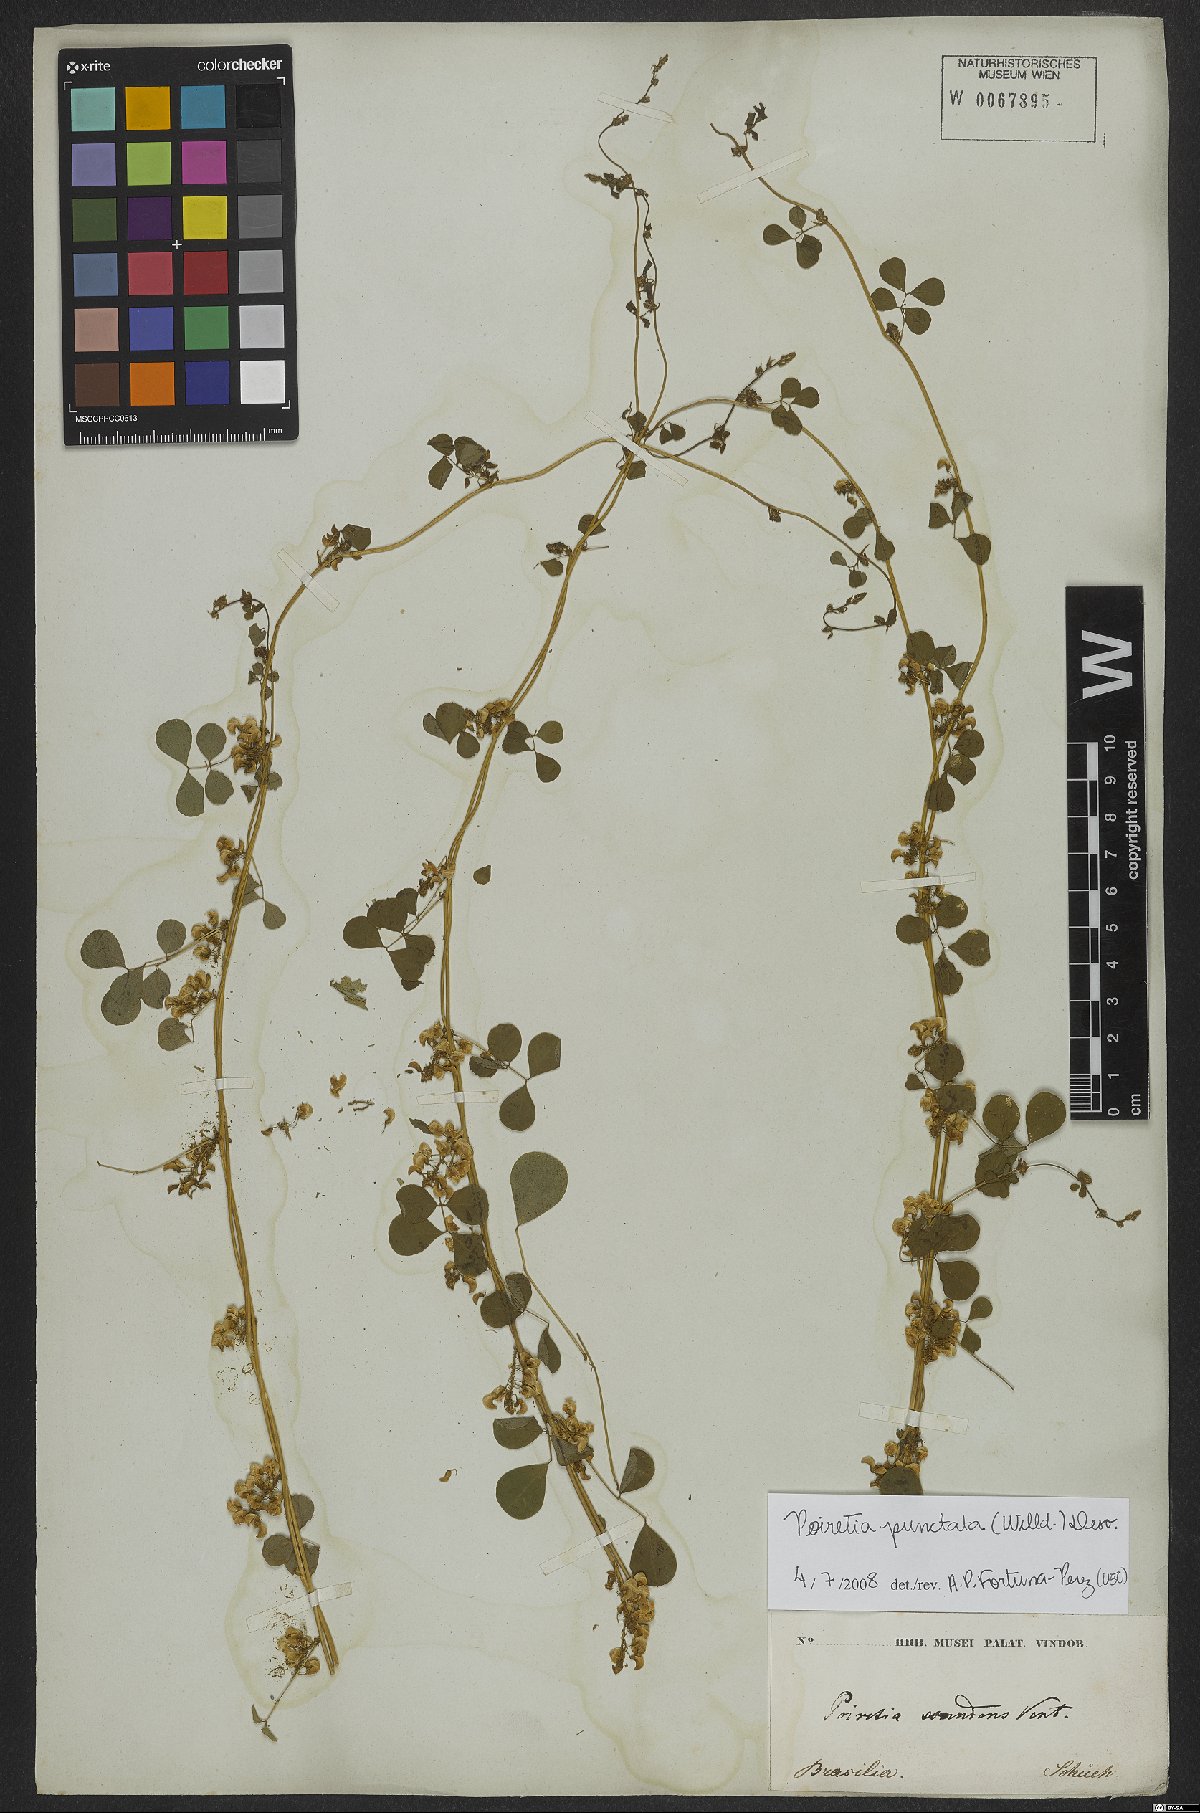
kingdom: Plantae
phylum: Tracheophyta
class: Magnoliopsida
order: Fabales
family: Fabaceae
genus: Poiretia
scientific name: Poiretia punctata
